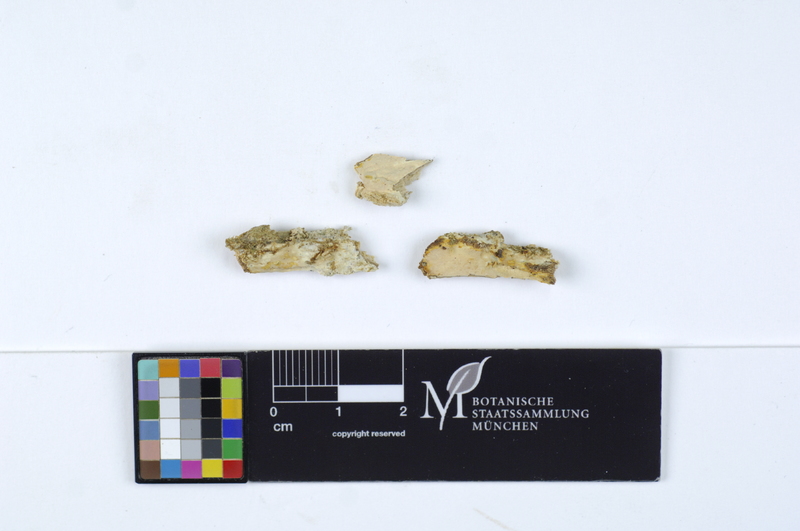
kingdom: Plantae
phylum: Tracheophyta
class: Magnoliopsida
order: Dipsacales
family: Viburnaceae
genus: Sambucus
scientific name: Sambucus nigra
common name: Elder
